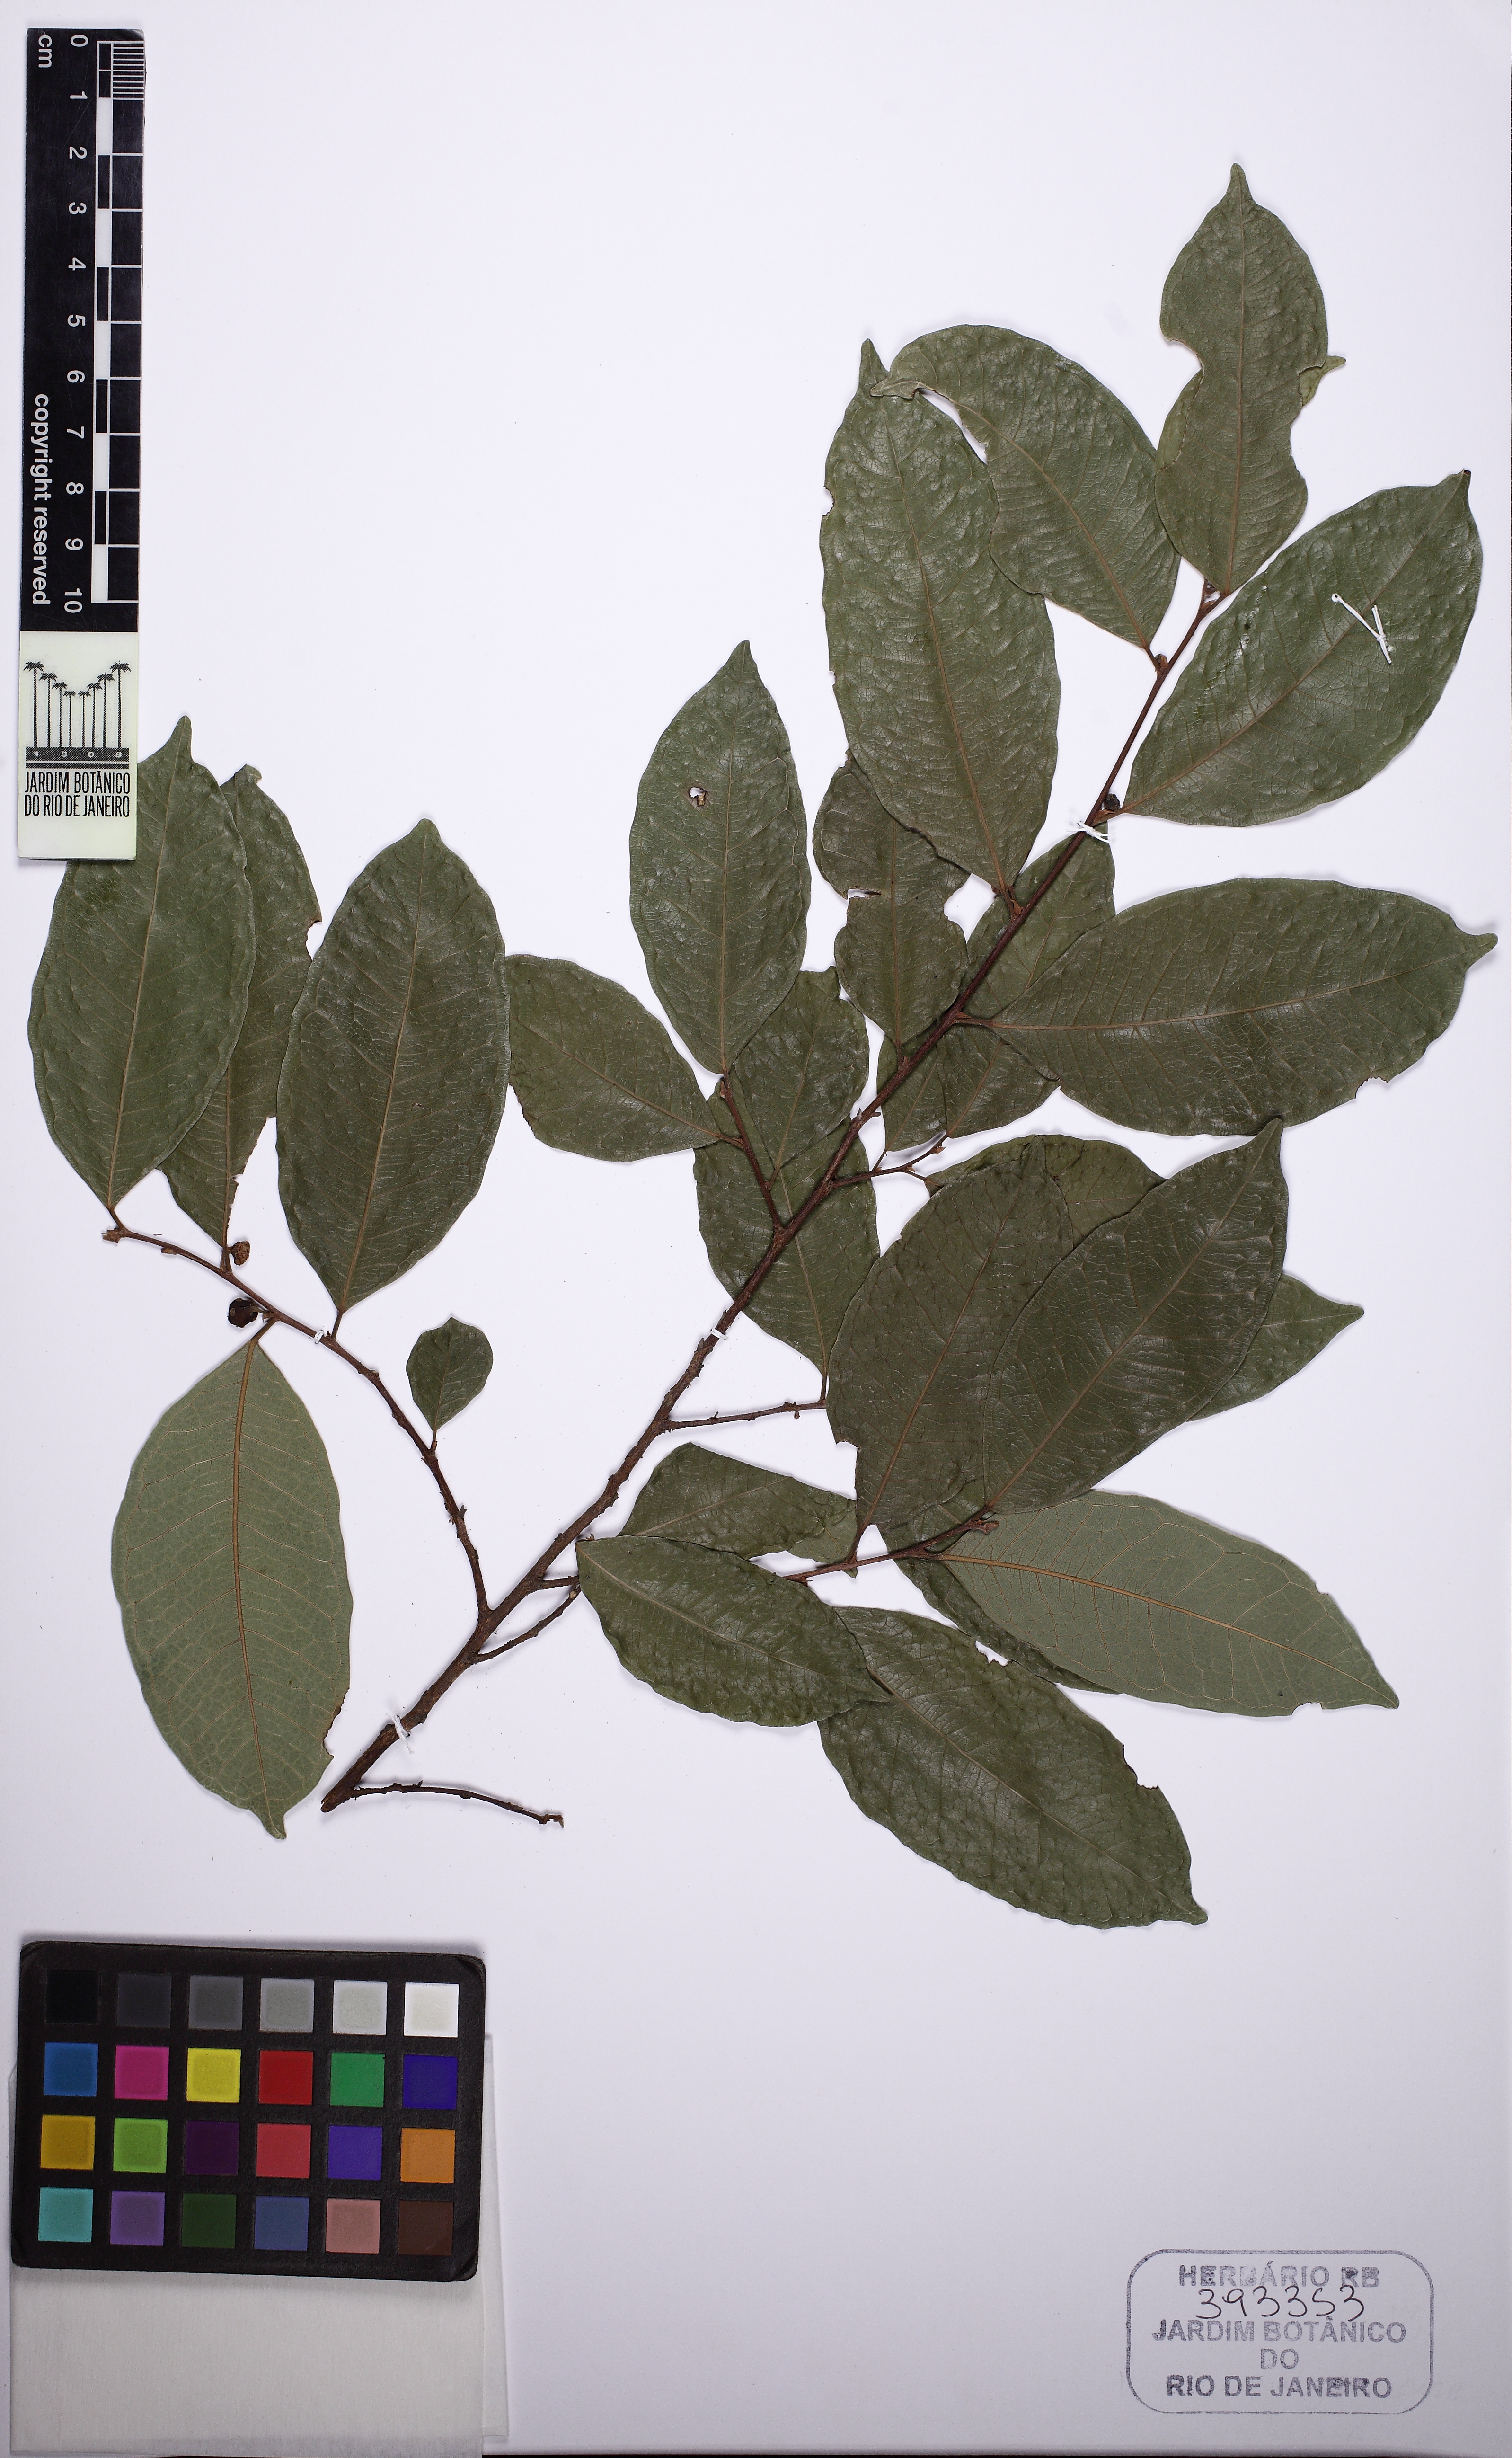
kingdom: Plantae
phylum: Tracheophyta
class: Magnoliopsida
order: Rosales
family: Moraceae
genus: Brosimum
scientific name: Brosimum guianense
